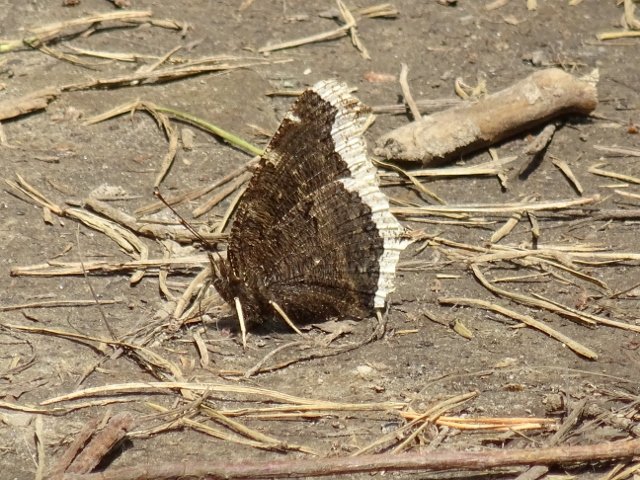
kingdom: Animalia
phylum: Arthropoda
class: Insecta
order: Lepidoptera
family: Nymphalidae
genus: Nymphalis
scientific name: Nymphalis antiopa
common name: Mourning Cloak
